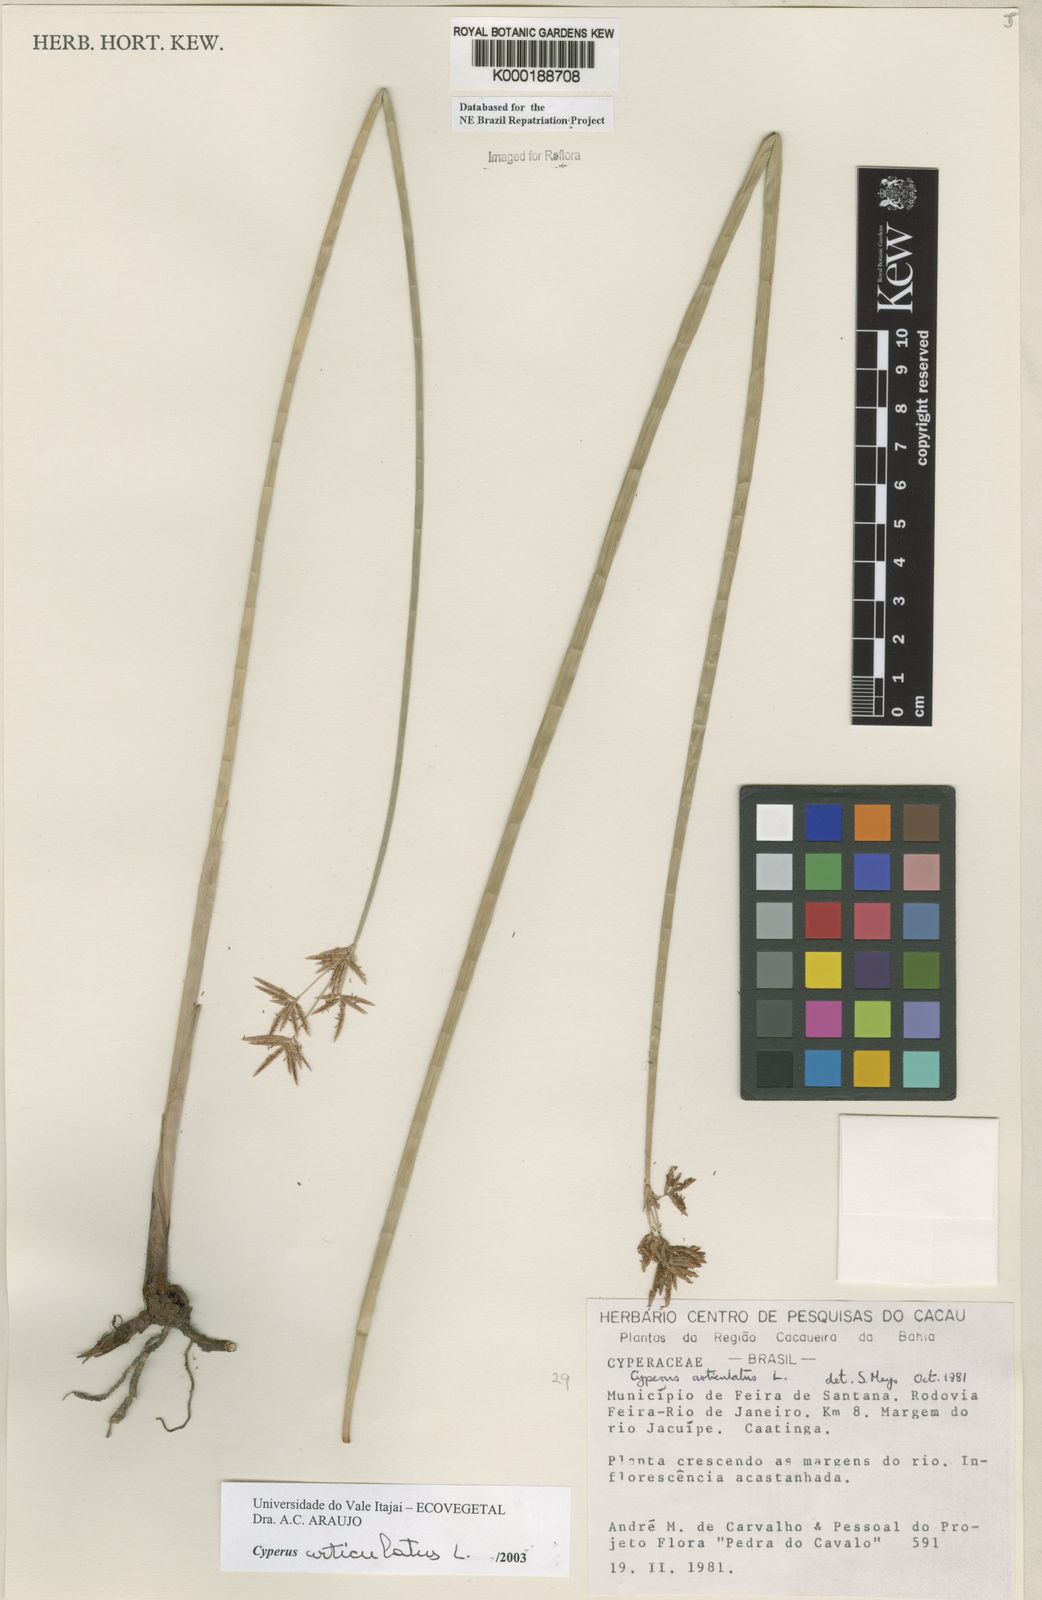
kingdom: Plantae
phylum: Tracheophyta
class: Liliopsida
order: Poales
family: Cyperaceae
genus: Cyperus
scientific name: Cyperus articulatus
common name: Jointed flatsedge
